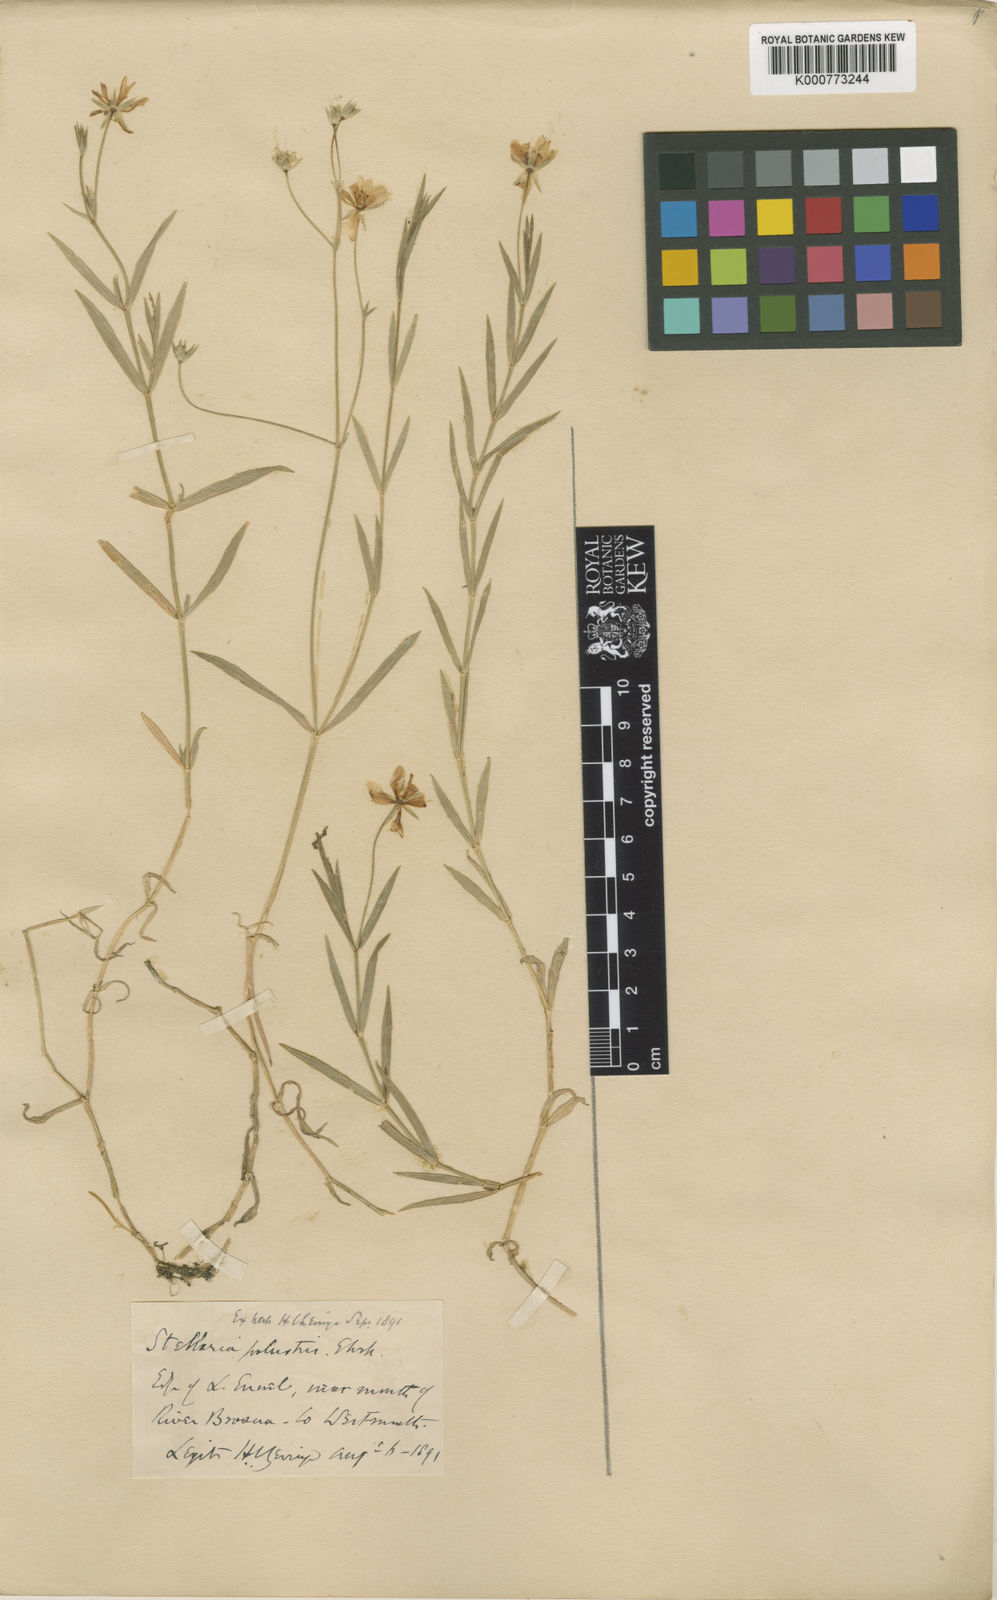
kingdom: Plantae
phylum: Tracheophyta
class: Magnoliopsida
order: Caryophyllales
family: Caryophyllaceae
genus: Stellaria
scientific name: Stellaria
